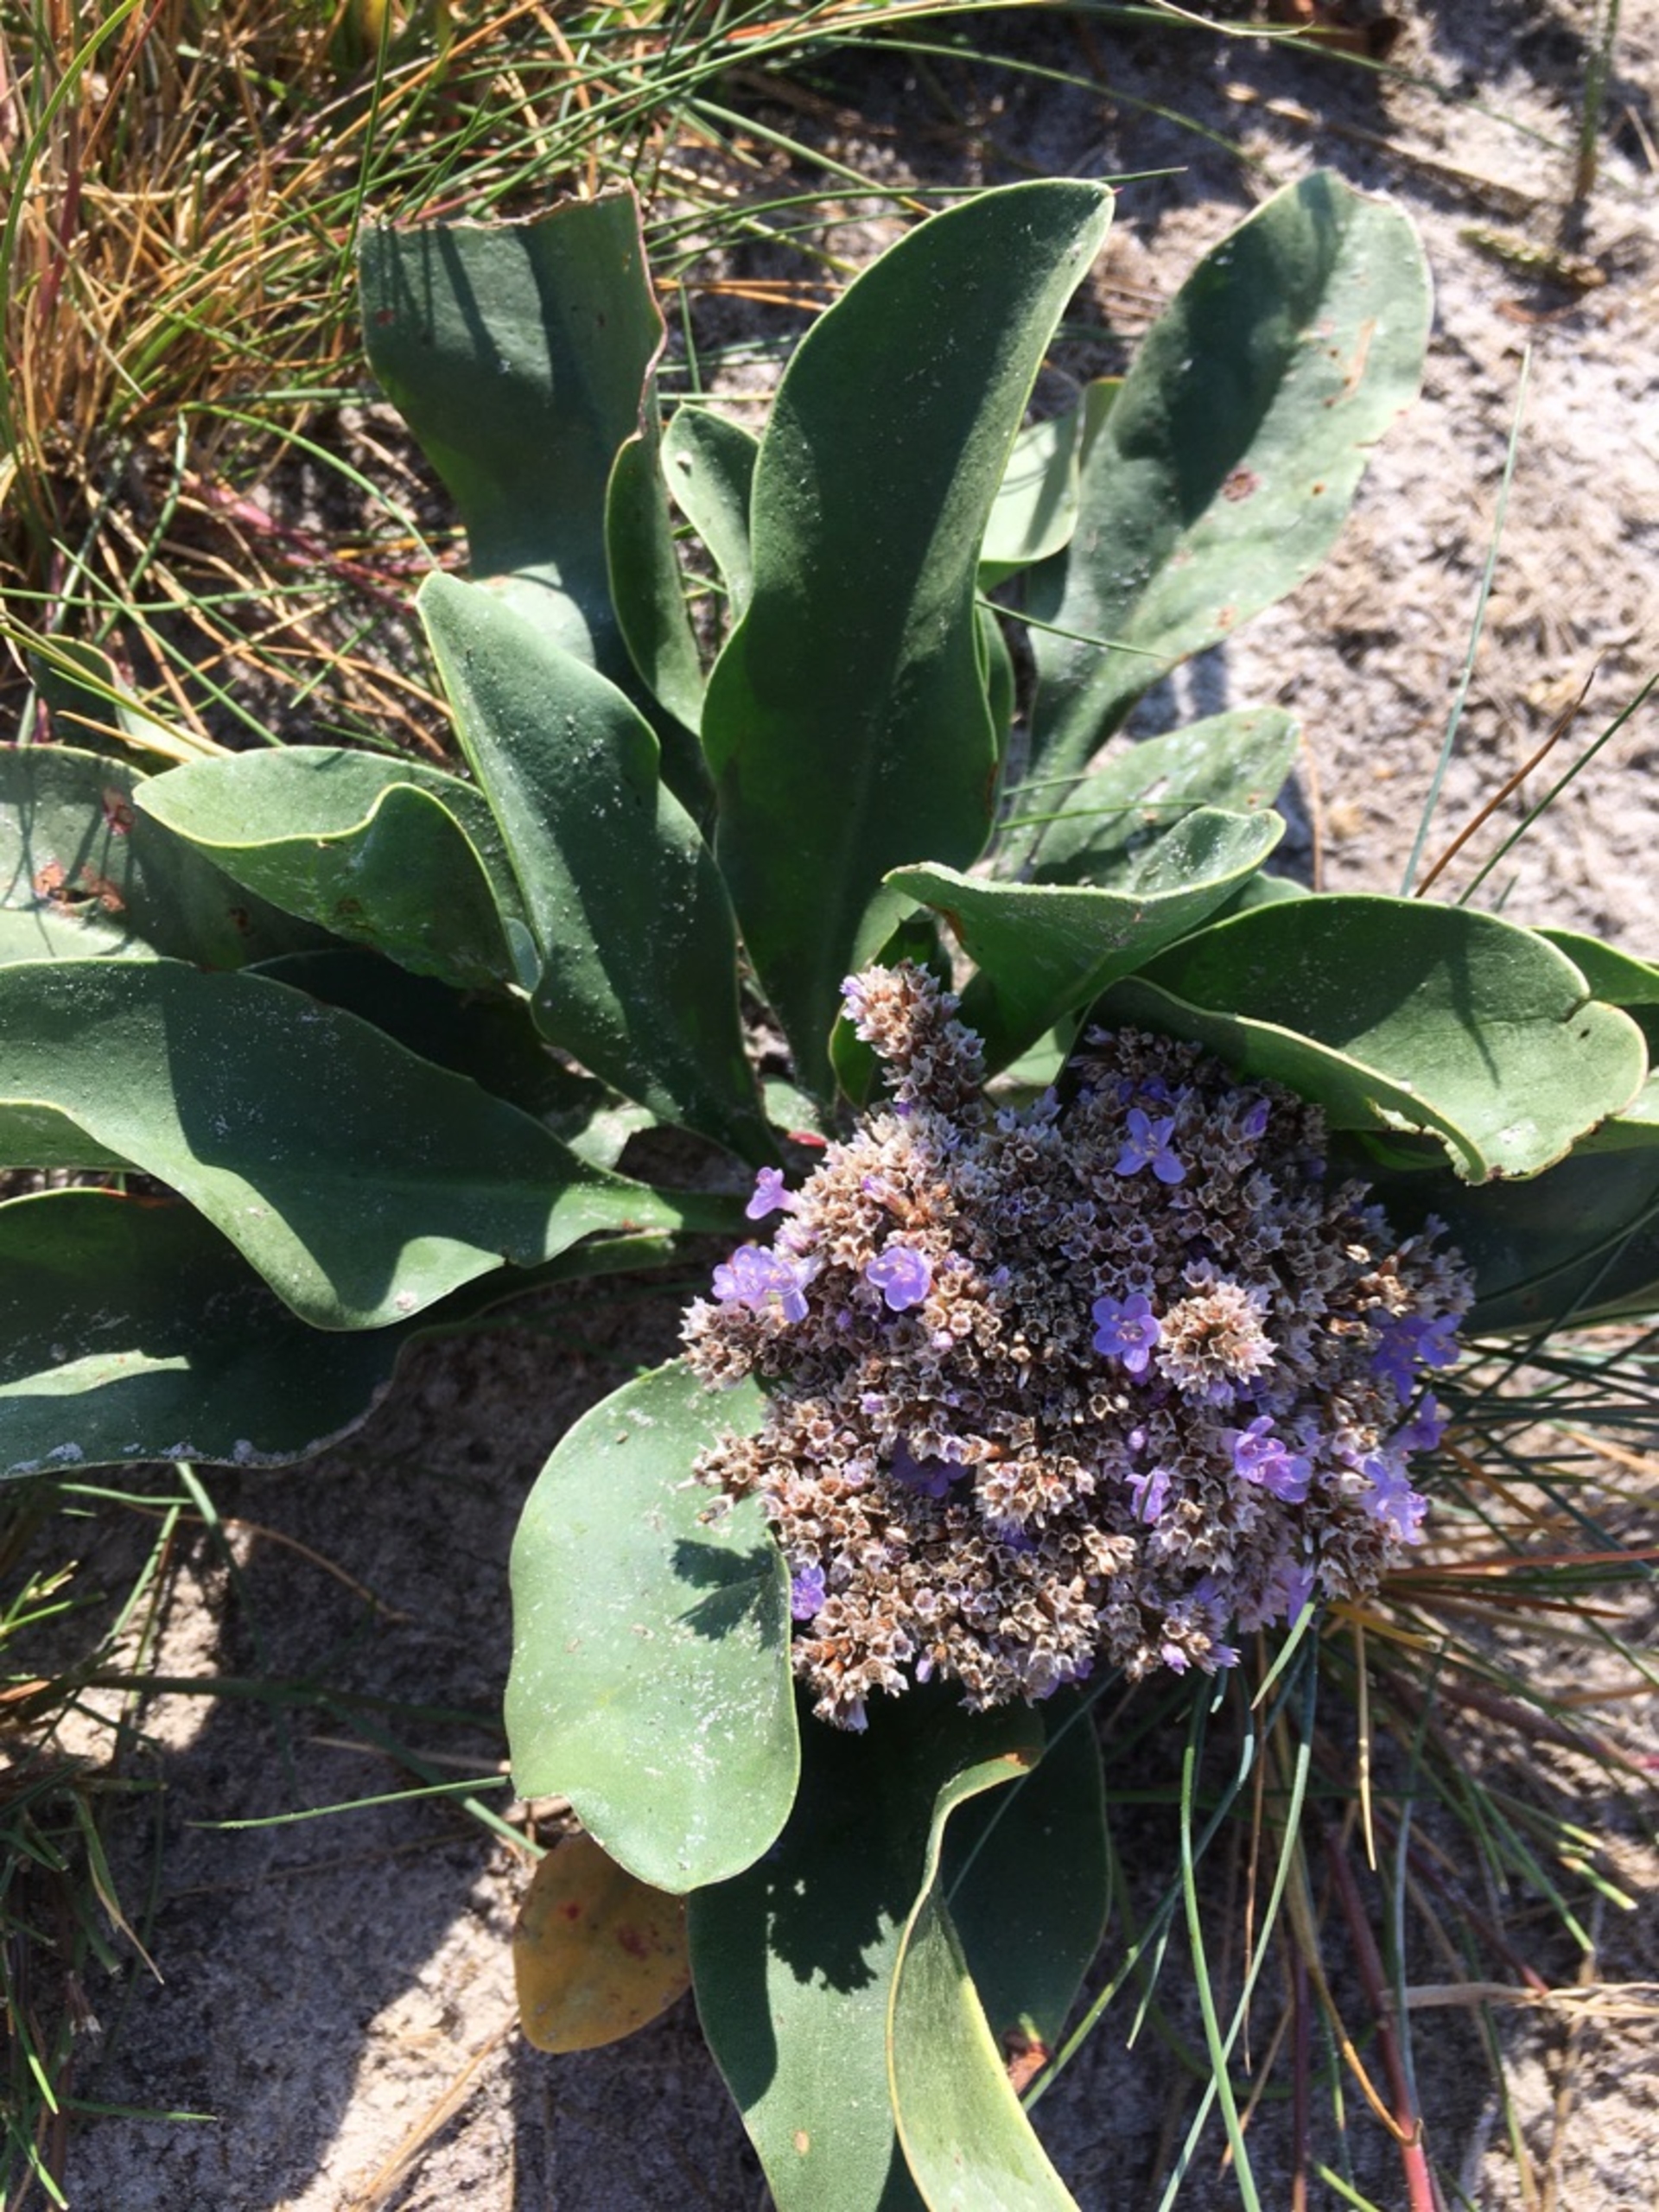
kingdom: Plantae
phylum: Tracheophyta
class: Magnoliopsida
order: Caryophyllales
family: Plumbaginaceae
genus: Limonium
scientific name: Limonium vulgare
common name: Tætblomstret hindebæger
